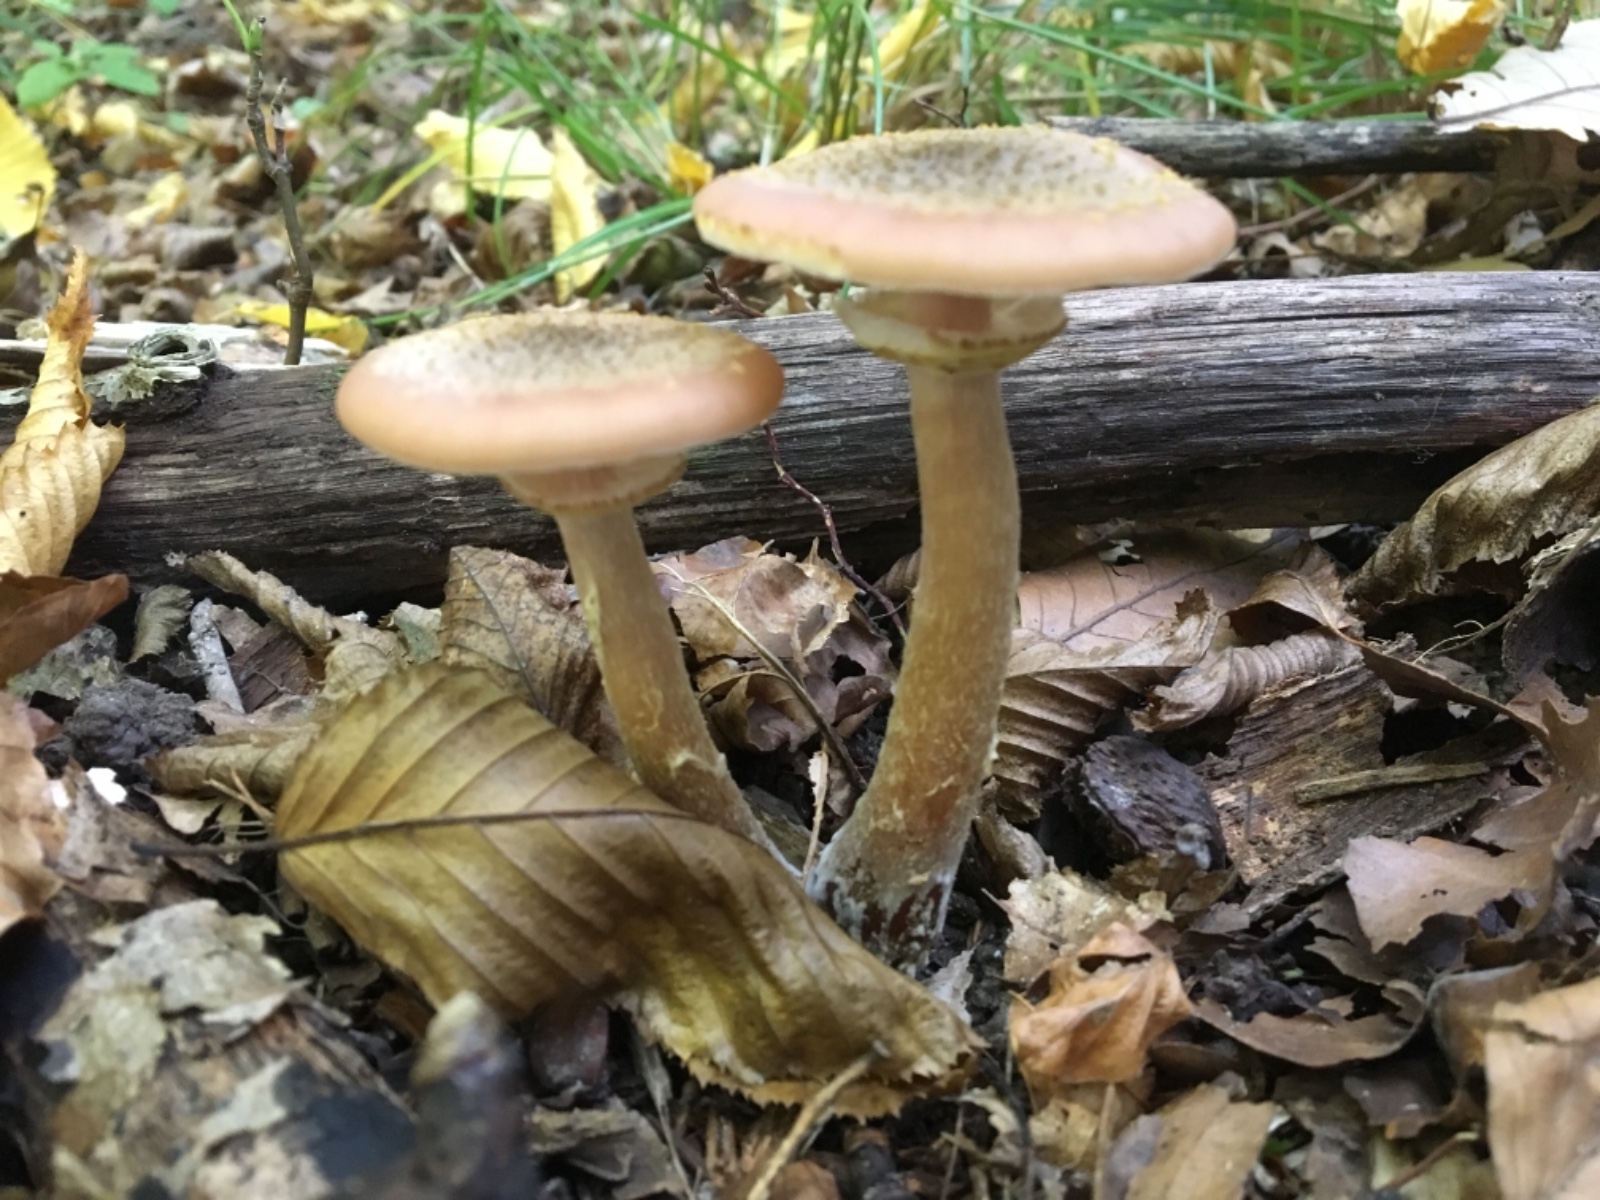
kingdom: Fungi
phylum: Basidiomycota
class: Agaricomycetes
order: Agaricales
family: Physalacriaceae
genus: Armillaria
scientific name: Armillaria lutea
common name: køllestokket honningsvamp
